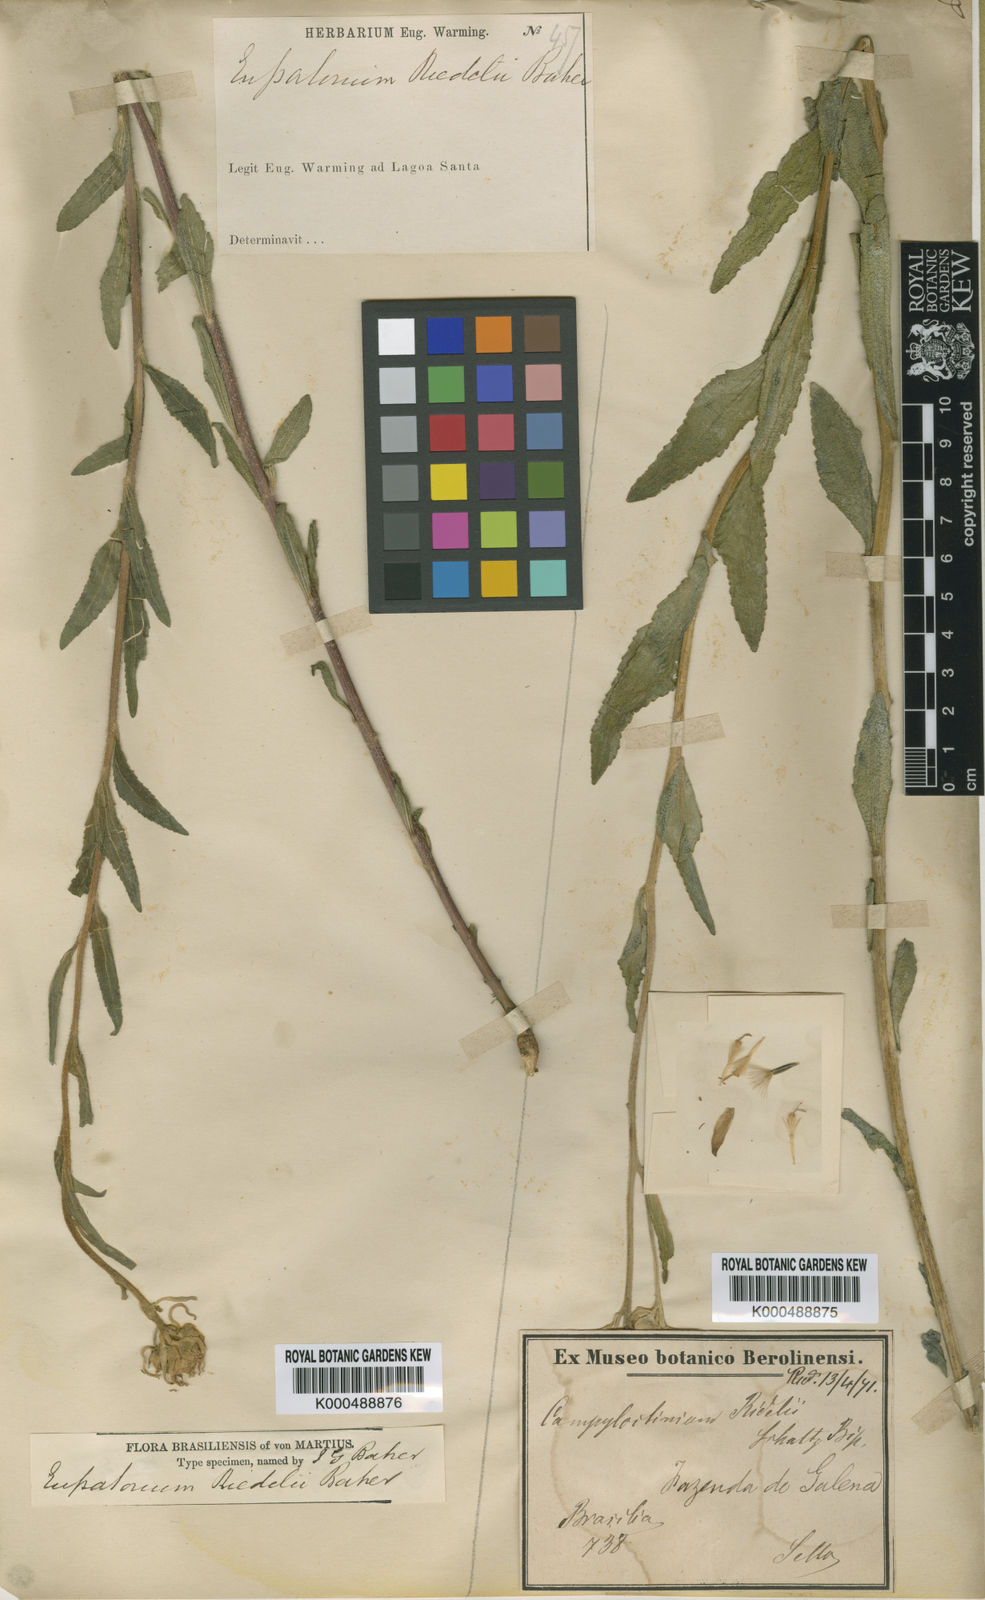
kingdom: Plantae
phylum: Tracheophyta
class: Magnoliopsida
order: Asterales
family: Asteraceae
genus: Campuloclinium
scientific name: Campuloclinium
